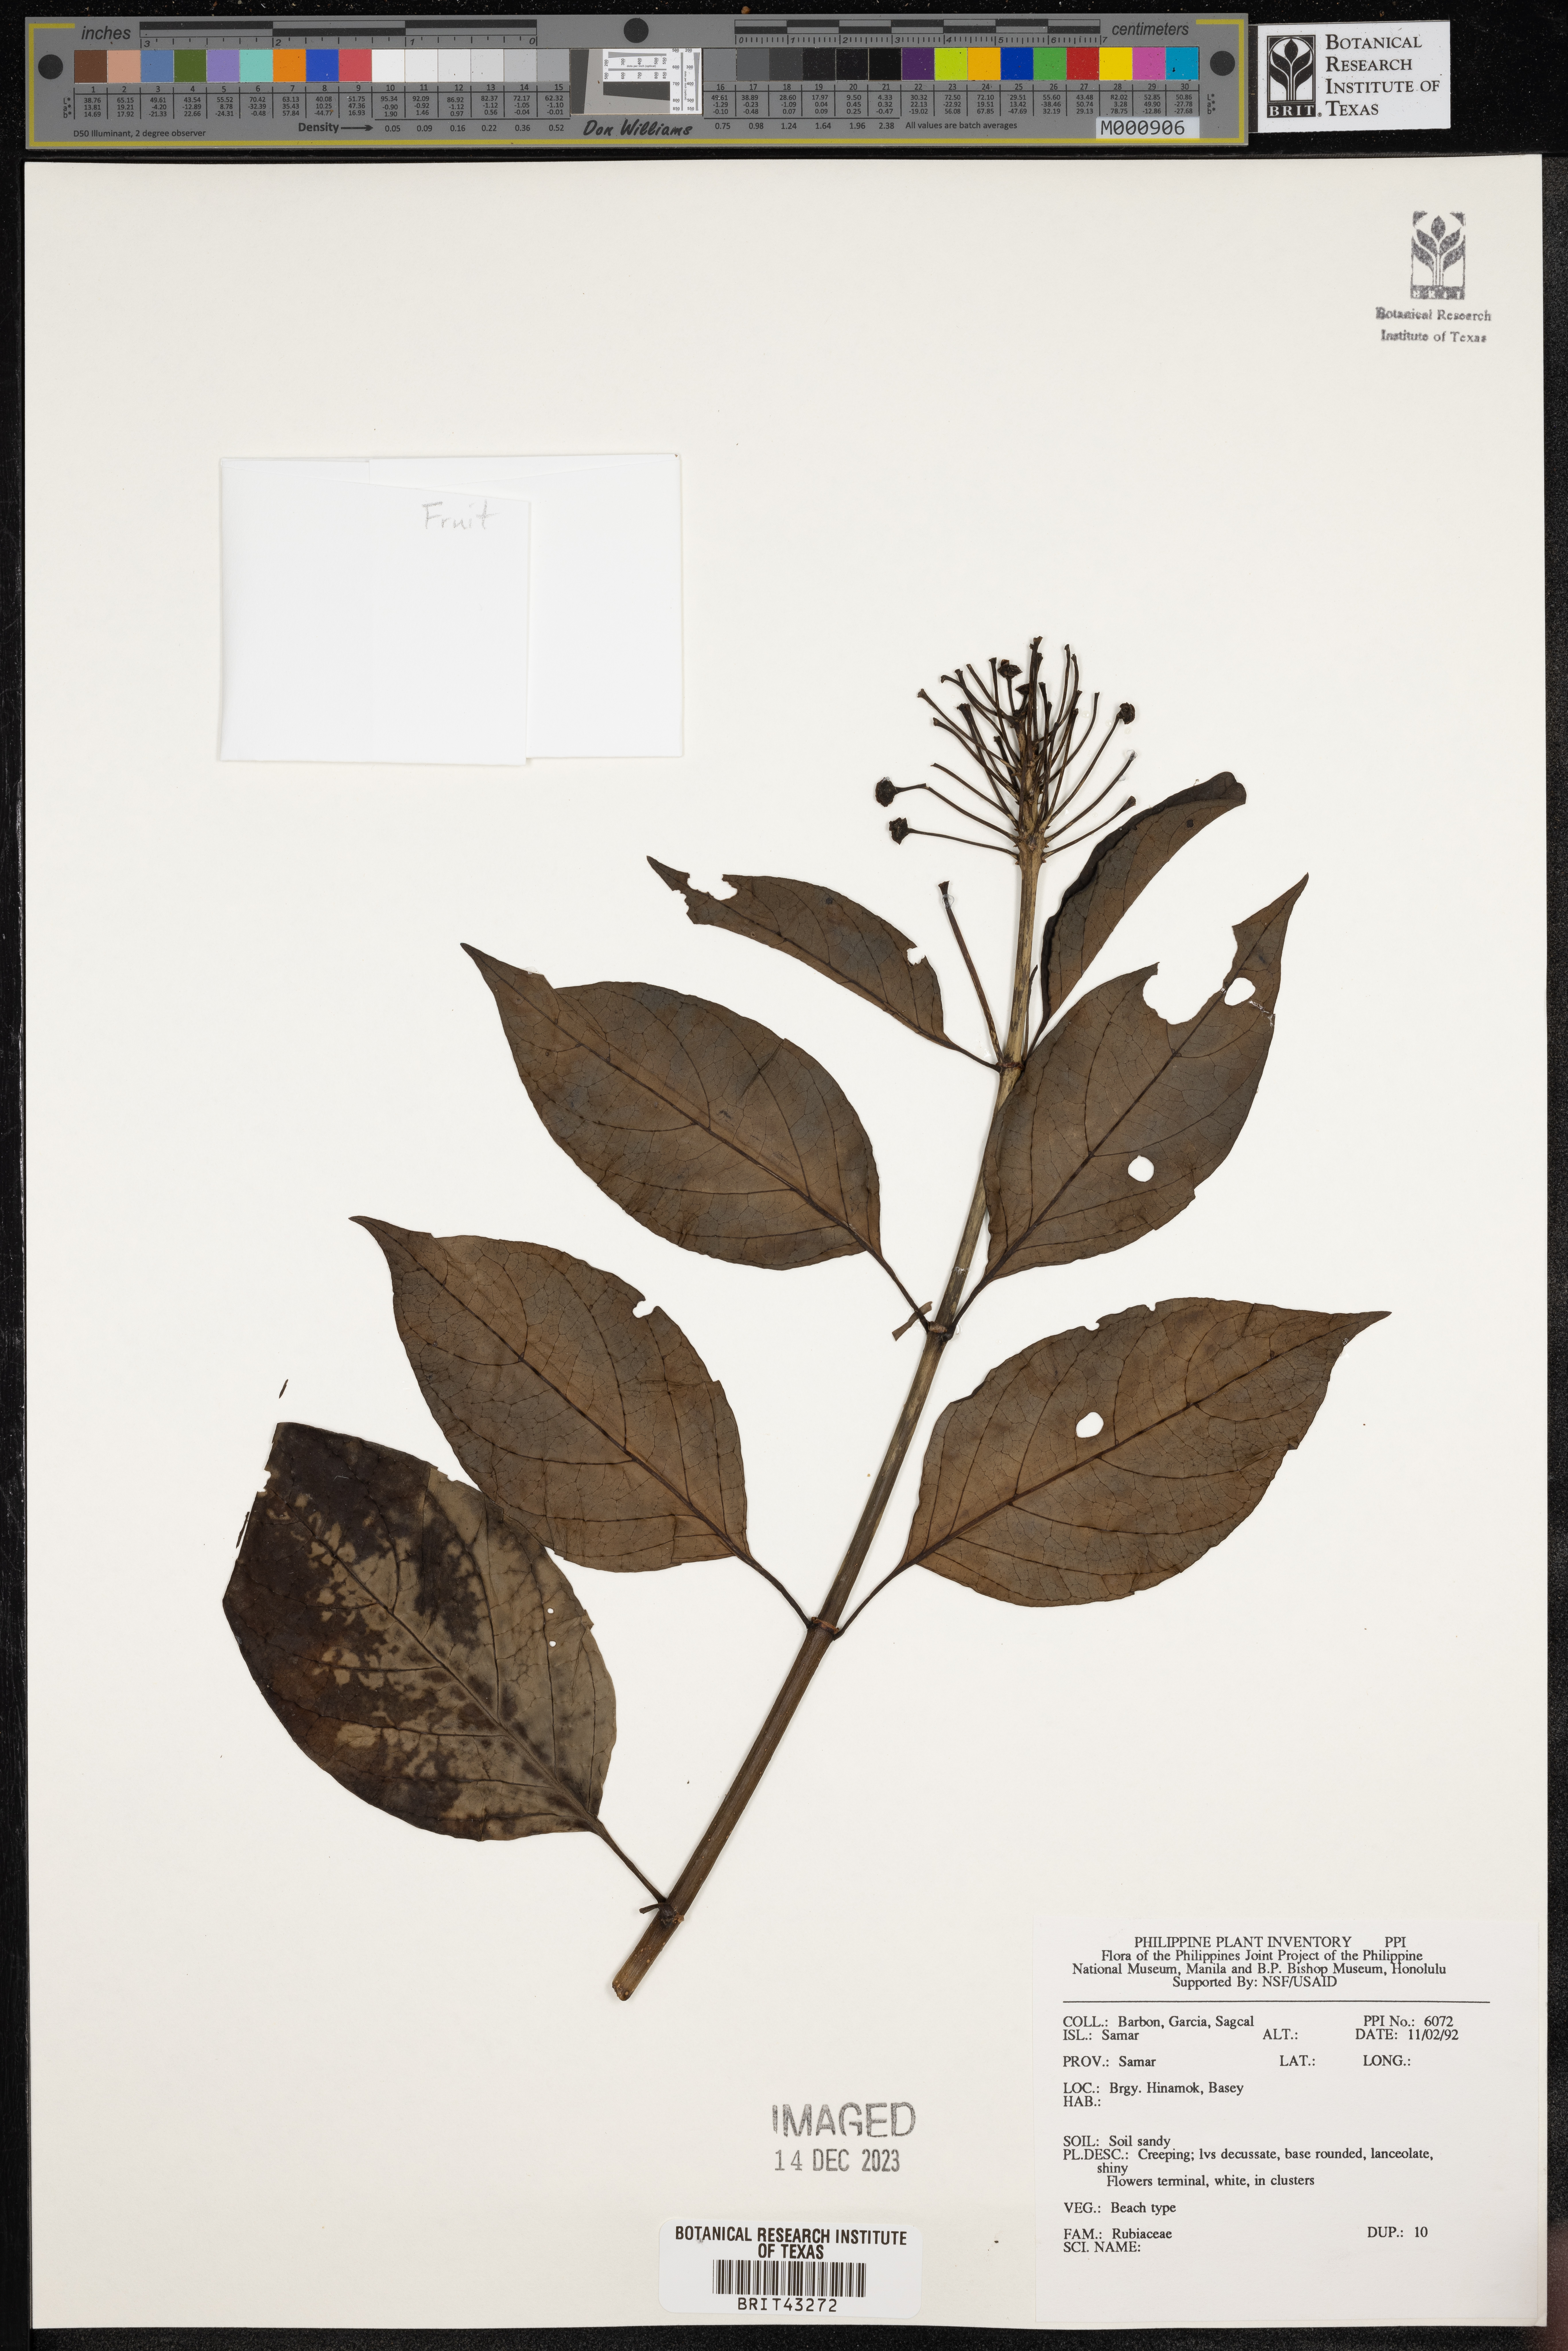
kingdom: Plantae
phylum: Tracheophyta
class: Magnoliopsida
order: Gentianales
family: Rubiaceae
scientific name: Rubiaceae
